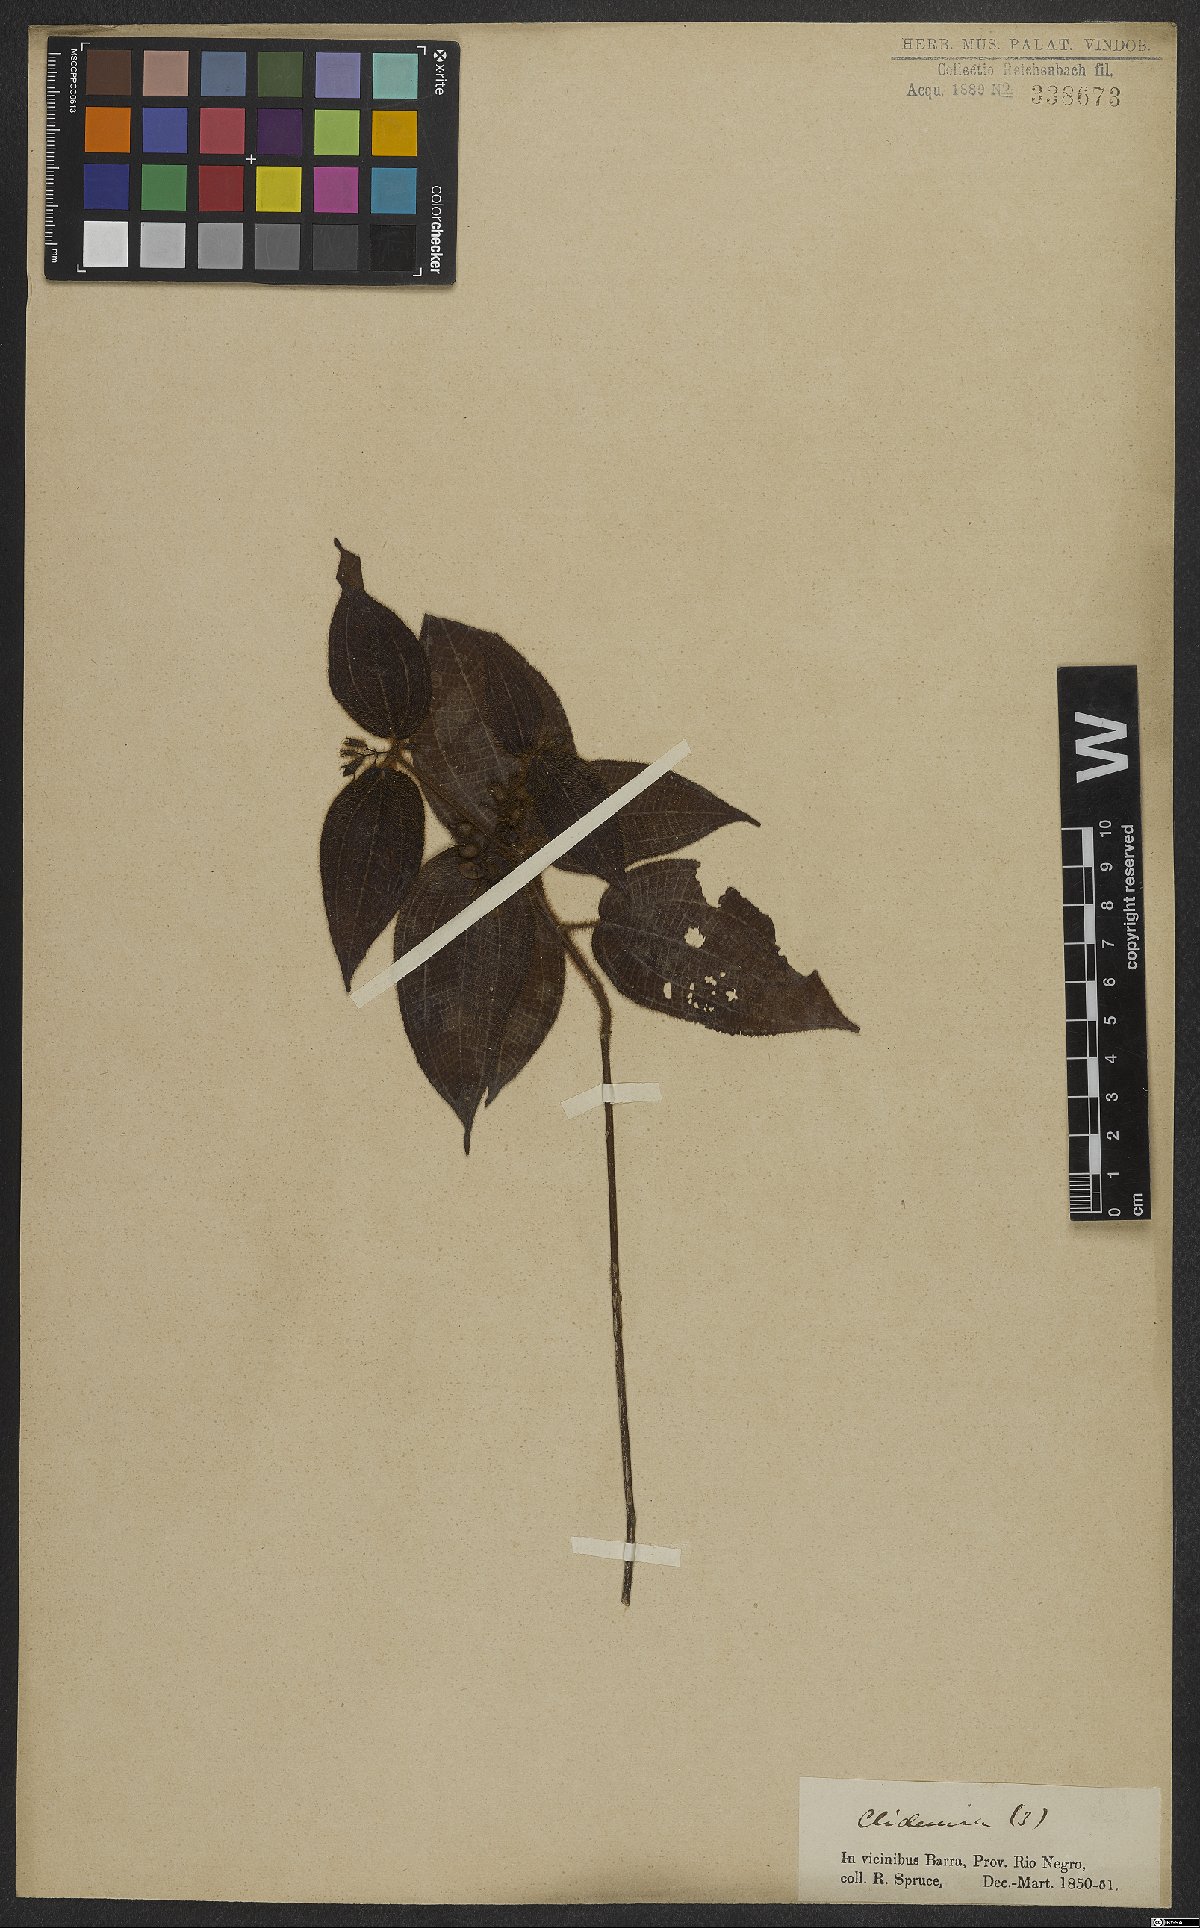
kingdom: Plantae
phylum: Tracheophyta
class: Magnoliopsida
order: Myrtales
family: Melastomataceae
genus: Miconia
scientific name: Miconia crenata
